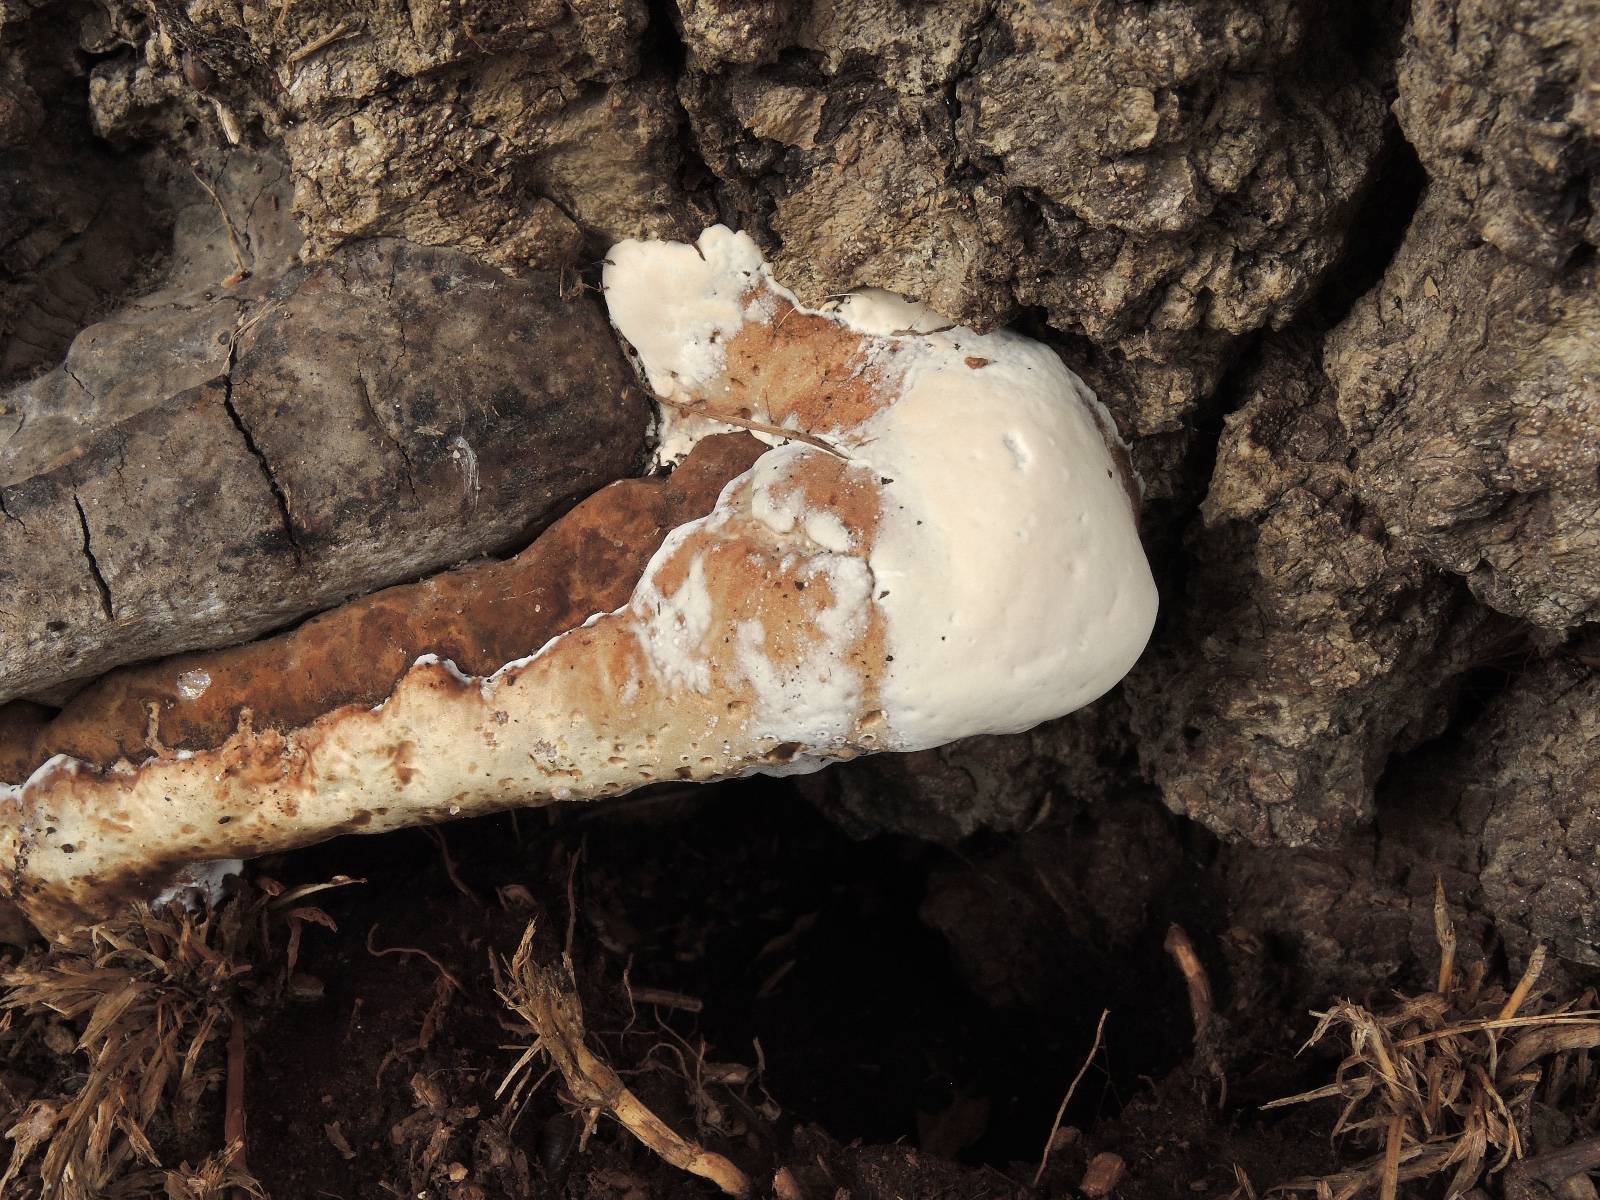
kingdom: Fungi
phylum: Basidiomycota
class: Agaricomycetes
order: Polyporales
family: Polyporaceae
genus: Ganoderma
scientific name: Ganoderma adspersum
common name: grov lakporesvamp
